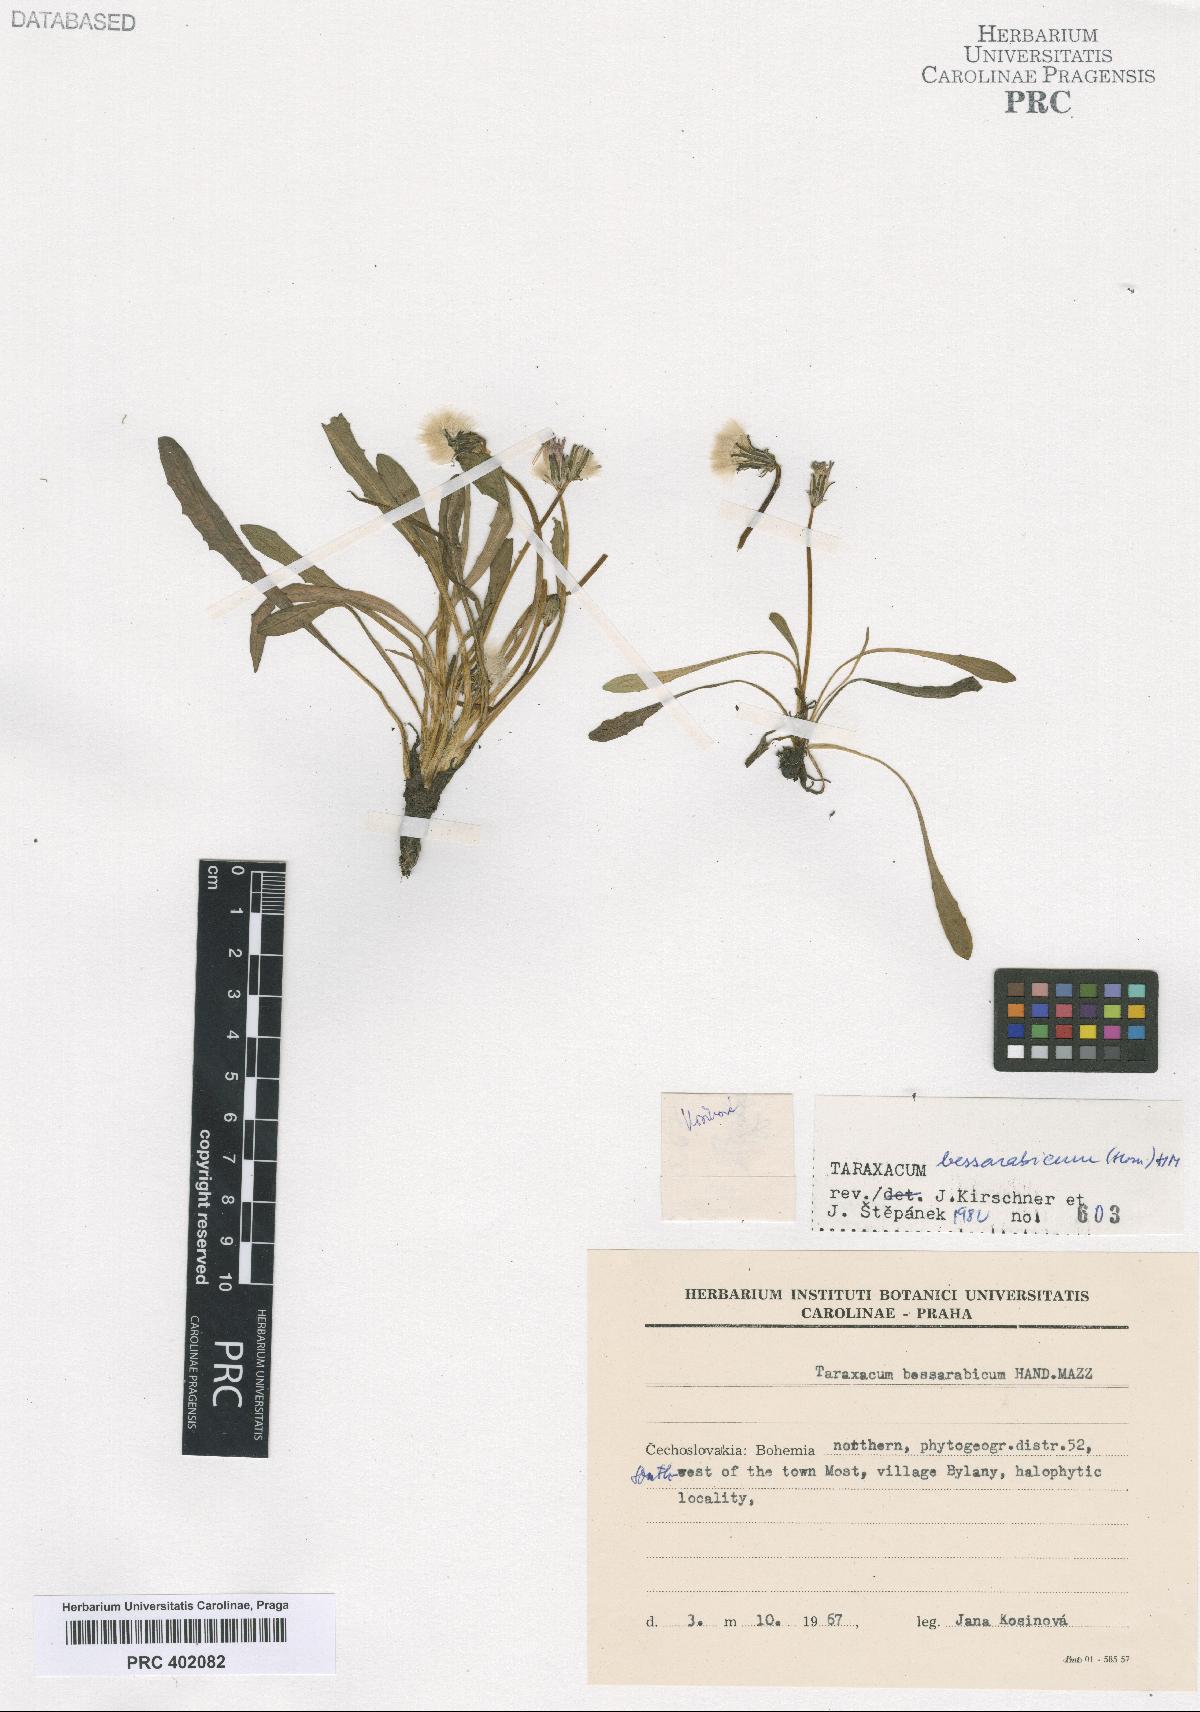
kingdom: Plantae
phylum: Tracheophyta
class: Magnoliopsida
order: Asterales
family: Asteraceae
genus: Taraxacum
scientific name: Taraxacum bessarabicum
